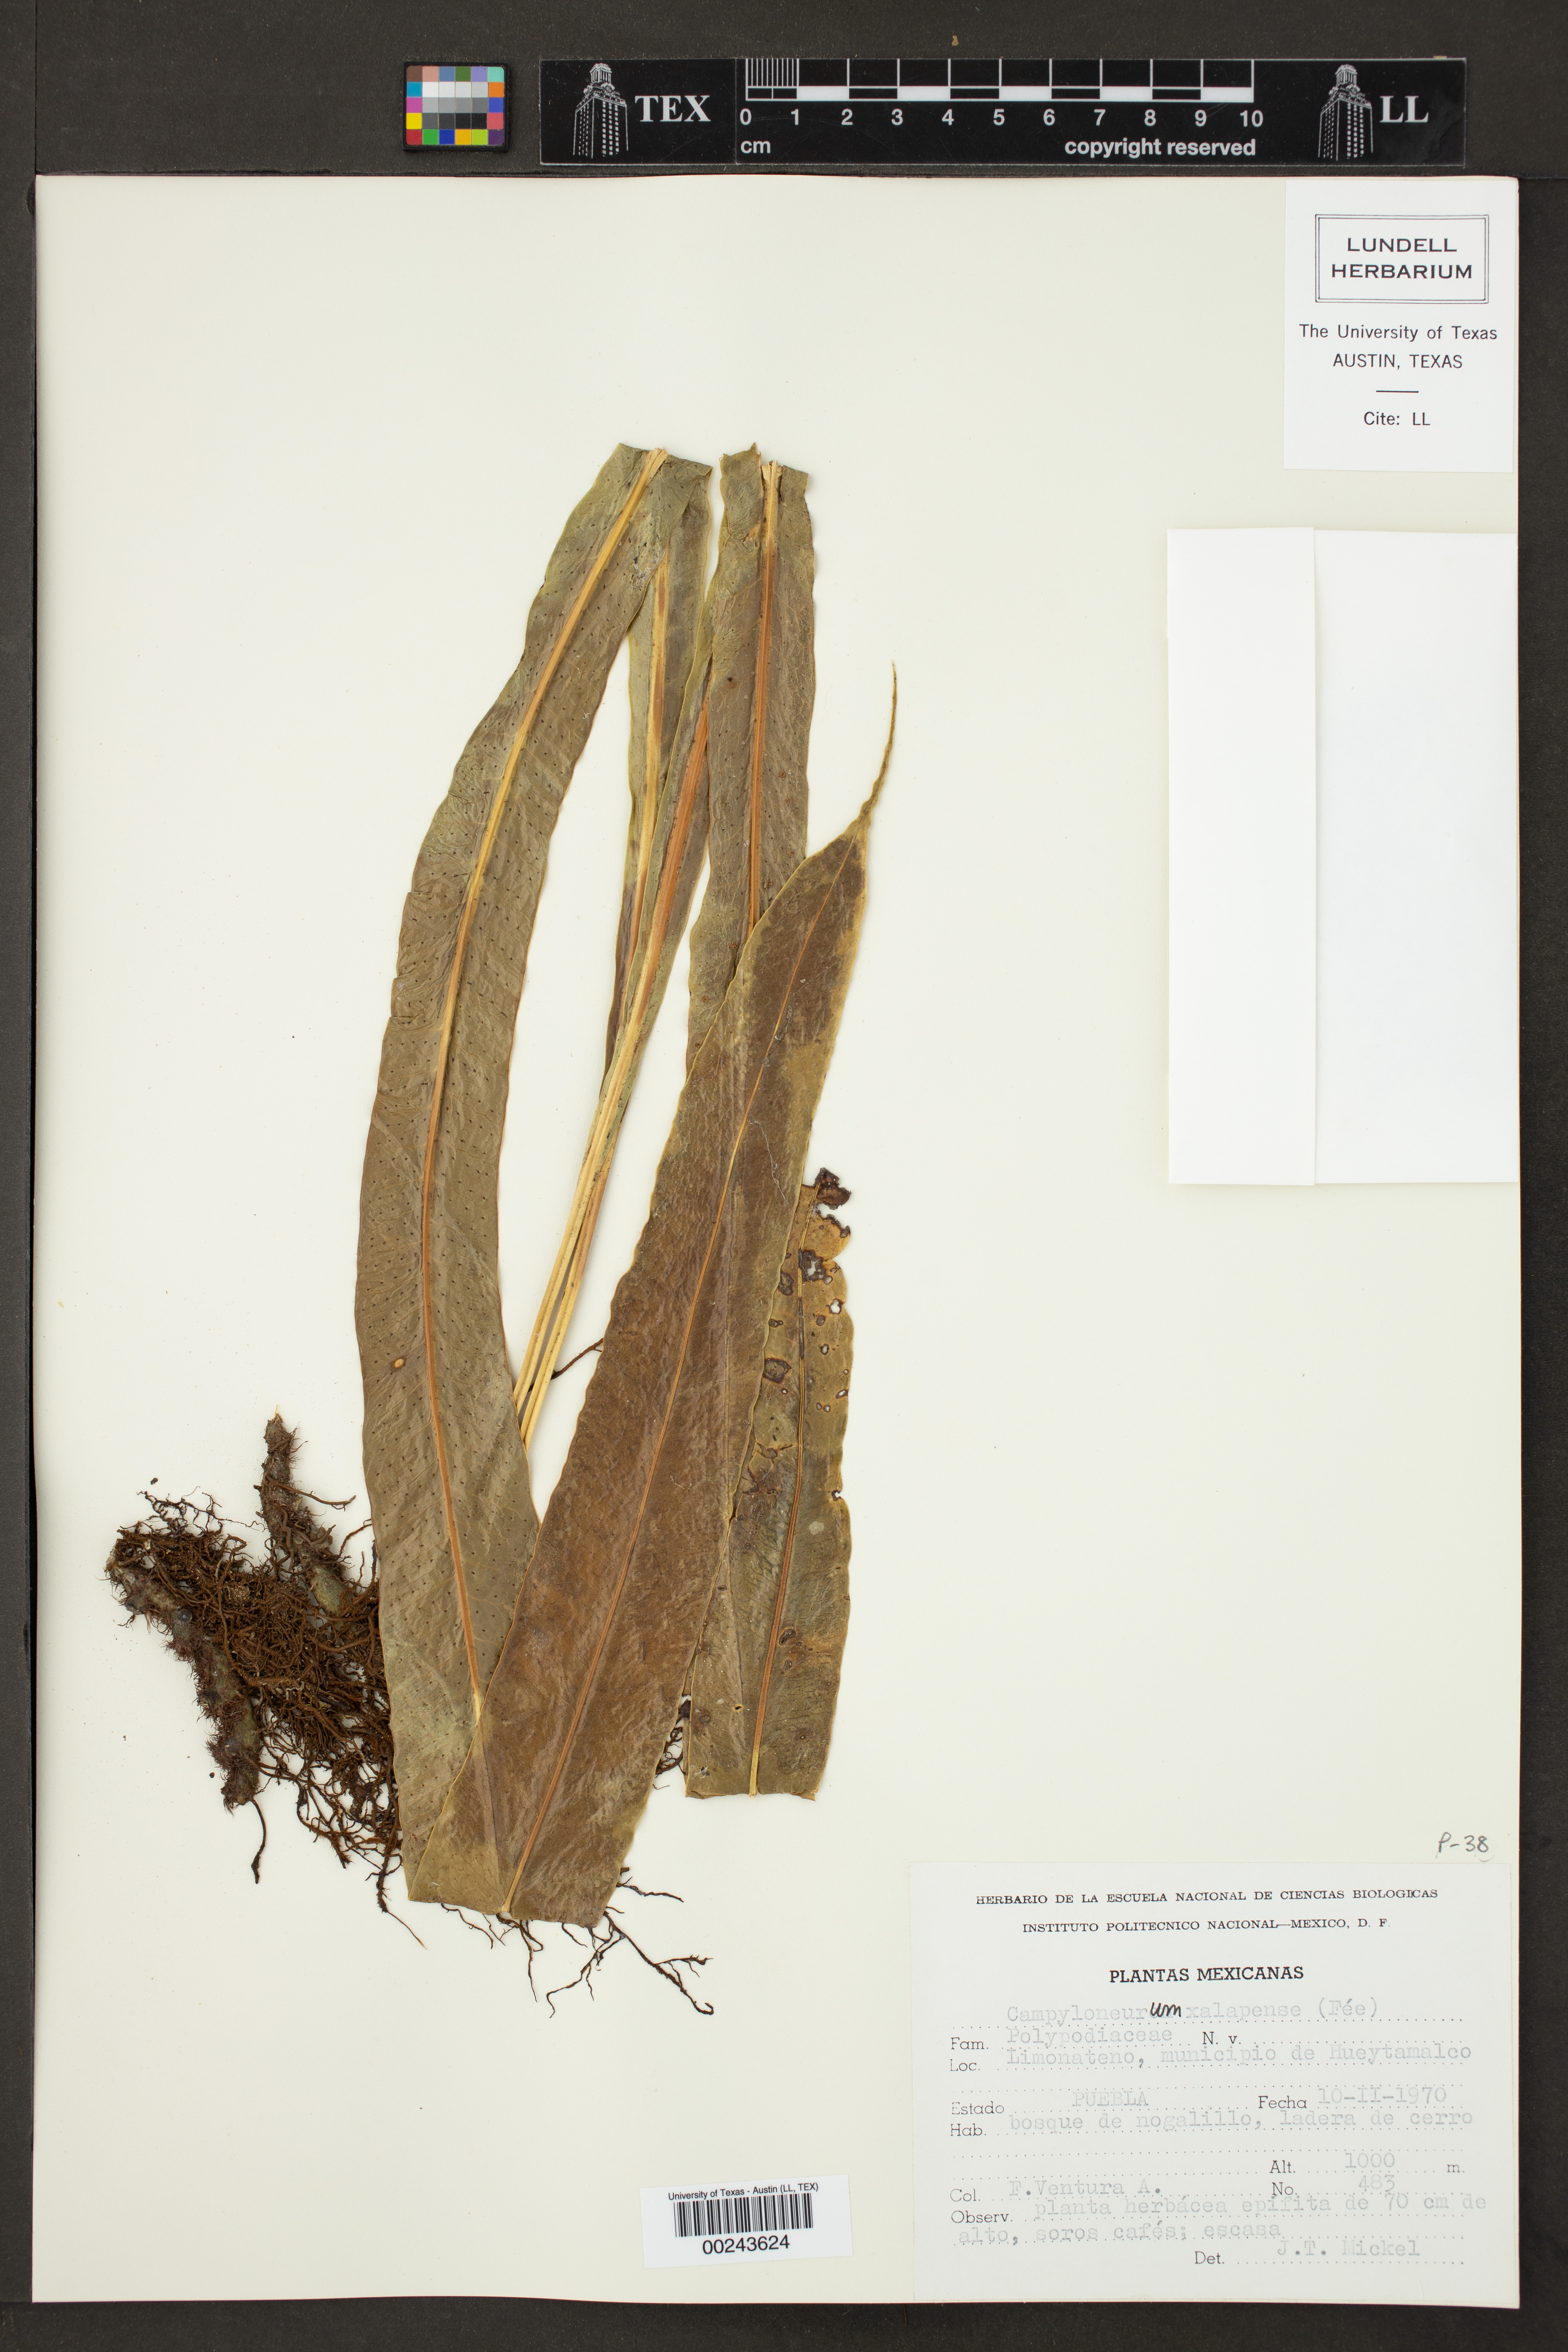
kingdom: Plantae
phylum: Tracheophyta
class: Polypodiopsida
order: Polypodiales
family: Polypodiaceae
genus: Campyloneurum
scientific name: Campyloneurum xalapense
